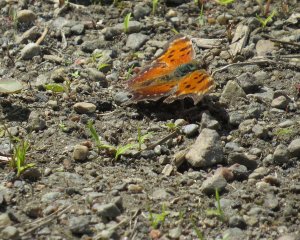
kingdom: Animalia
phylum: Arthropoda
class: Insecta
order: Lepidoptera
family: Nymphalidae
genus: Polygonia
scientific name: Polygonia progne
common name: Gray Comma
